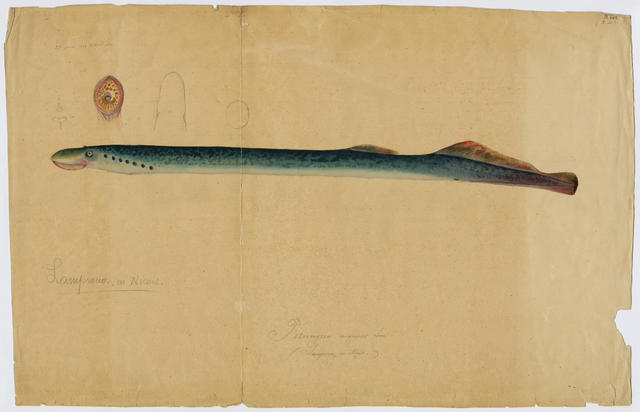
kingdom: Animalia
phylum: Chordata
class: Petromyzonti
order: Petromyzontiformes
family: Petromyzontidae
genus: Petromyzon
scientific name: Petromyzon marinus
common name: Sea lamprey
